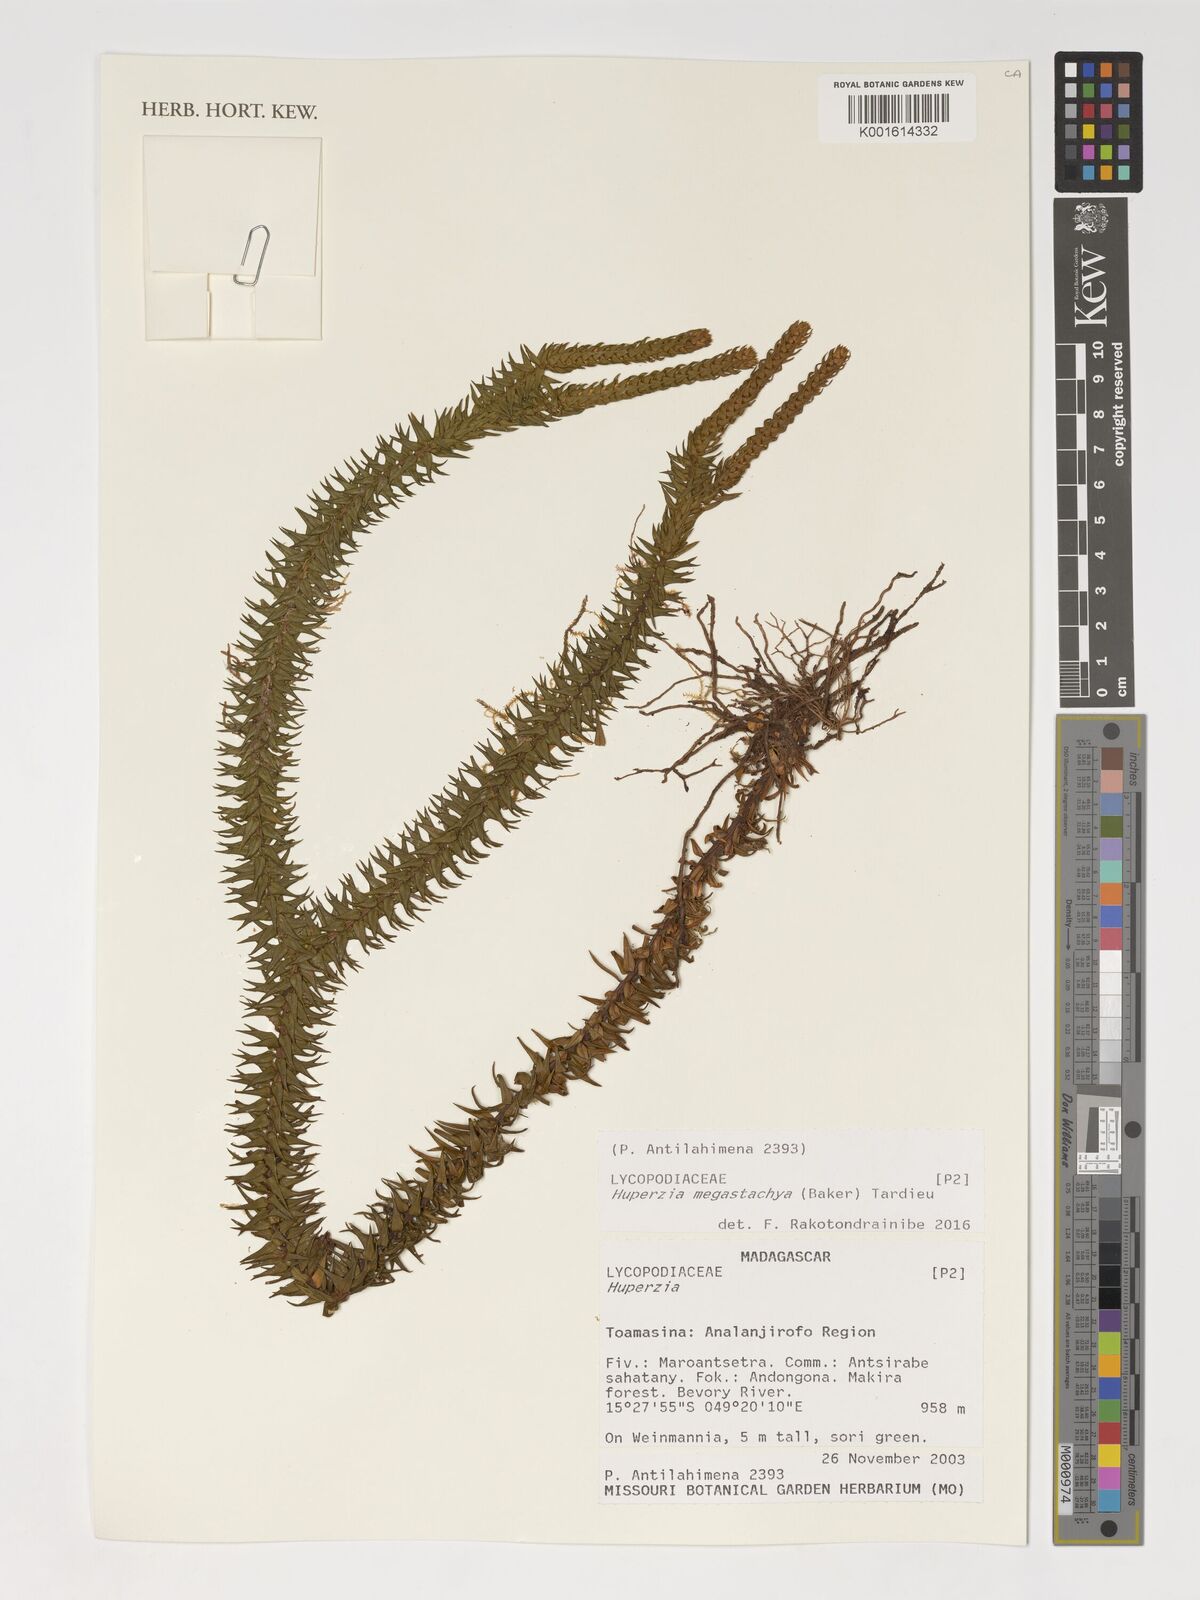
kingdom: Plantae
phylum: Tracheophyta
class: Lycopodiopsida
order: Lycopodiales
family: Lycopodiaceae
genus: Phlegmariurus
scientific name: Phlegmariurus megastachyus
